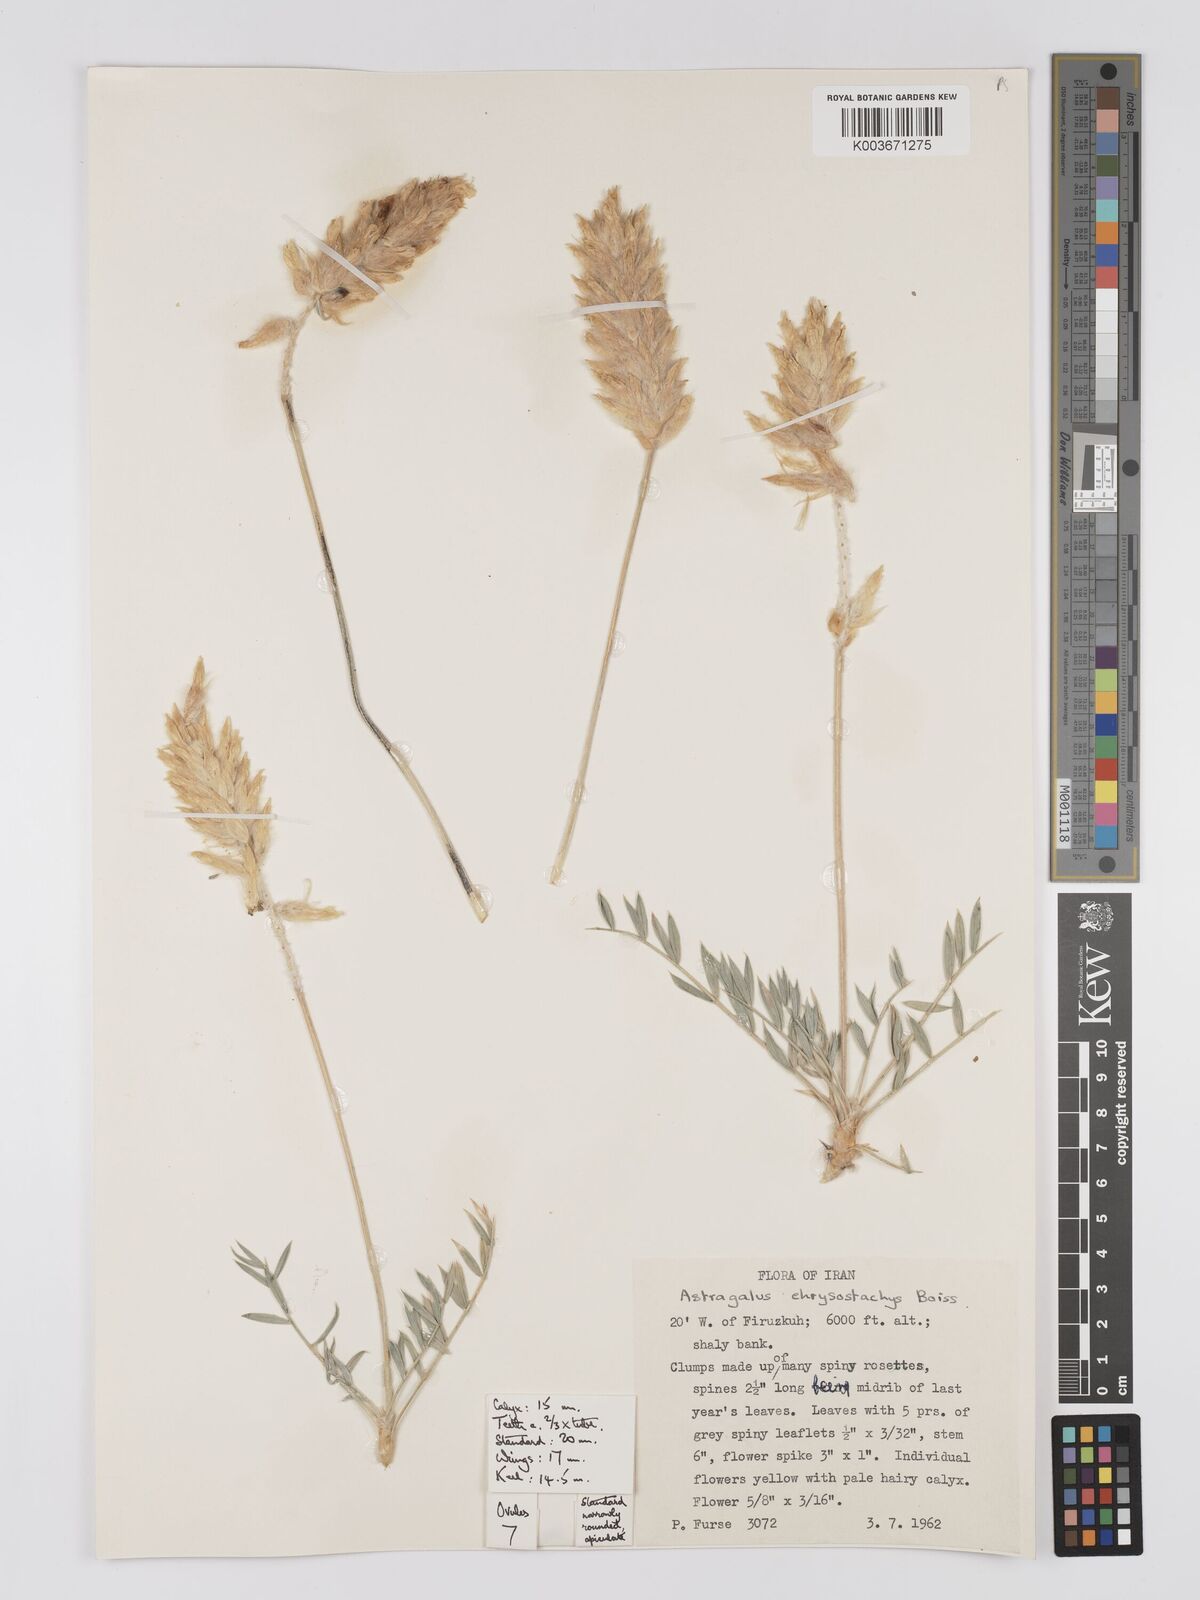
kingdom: Plantae
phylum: Tracheophyta
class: Magnoliopsida
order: Fabales
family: Fabaceae
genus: Astragalus
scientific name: Astragalus chrysostachys
